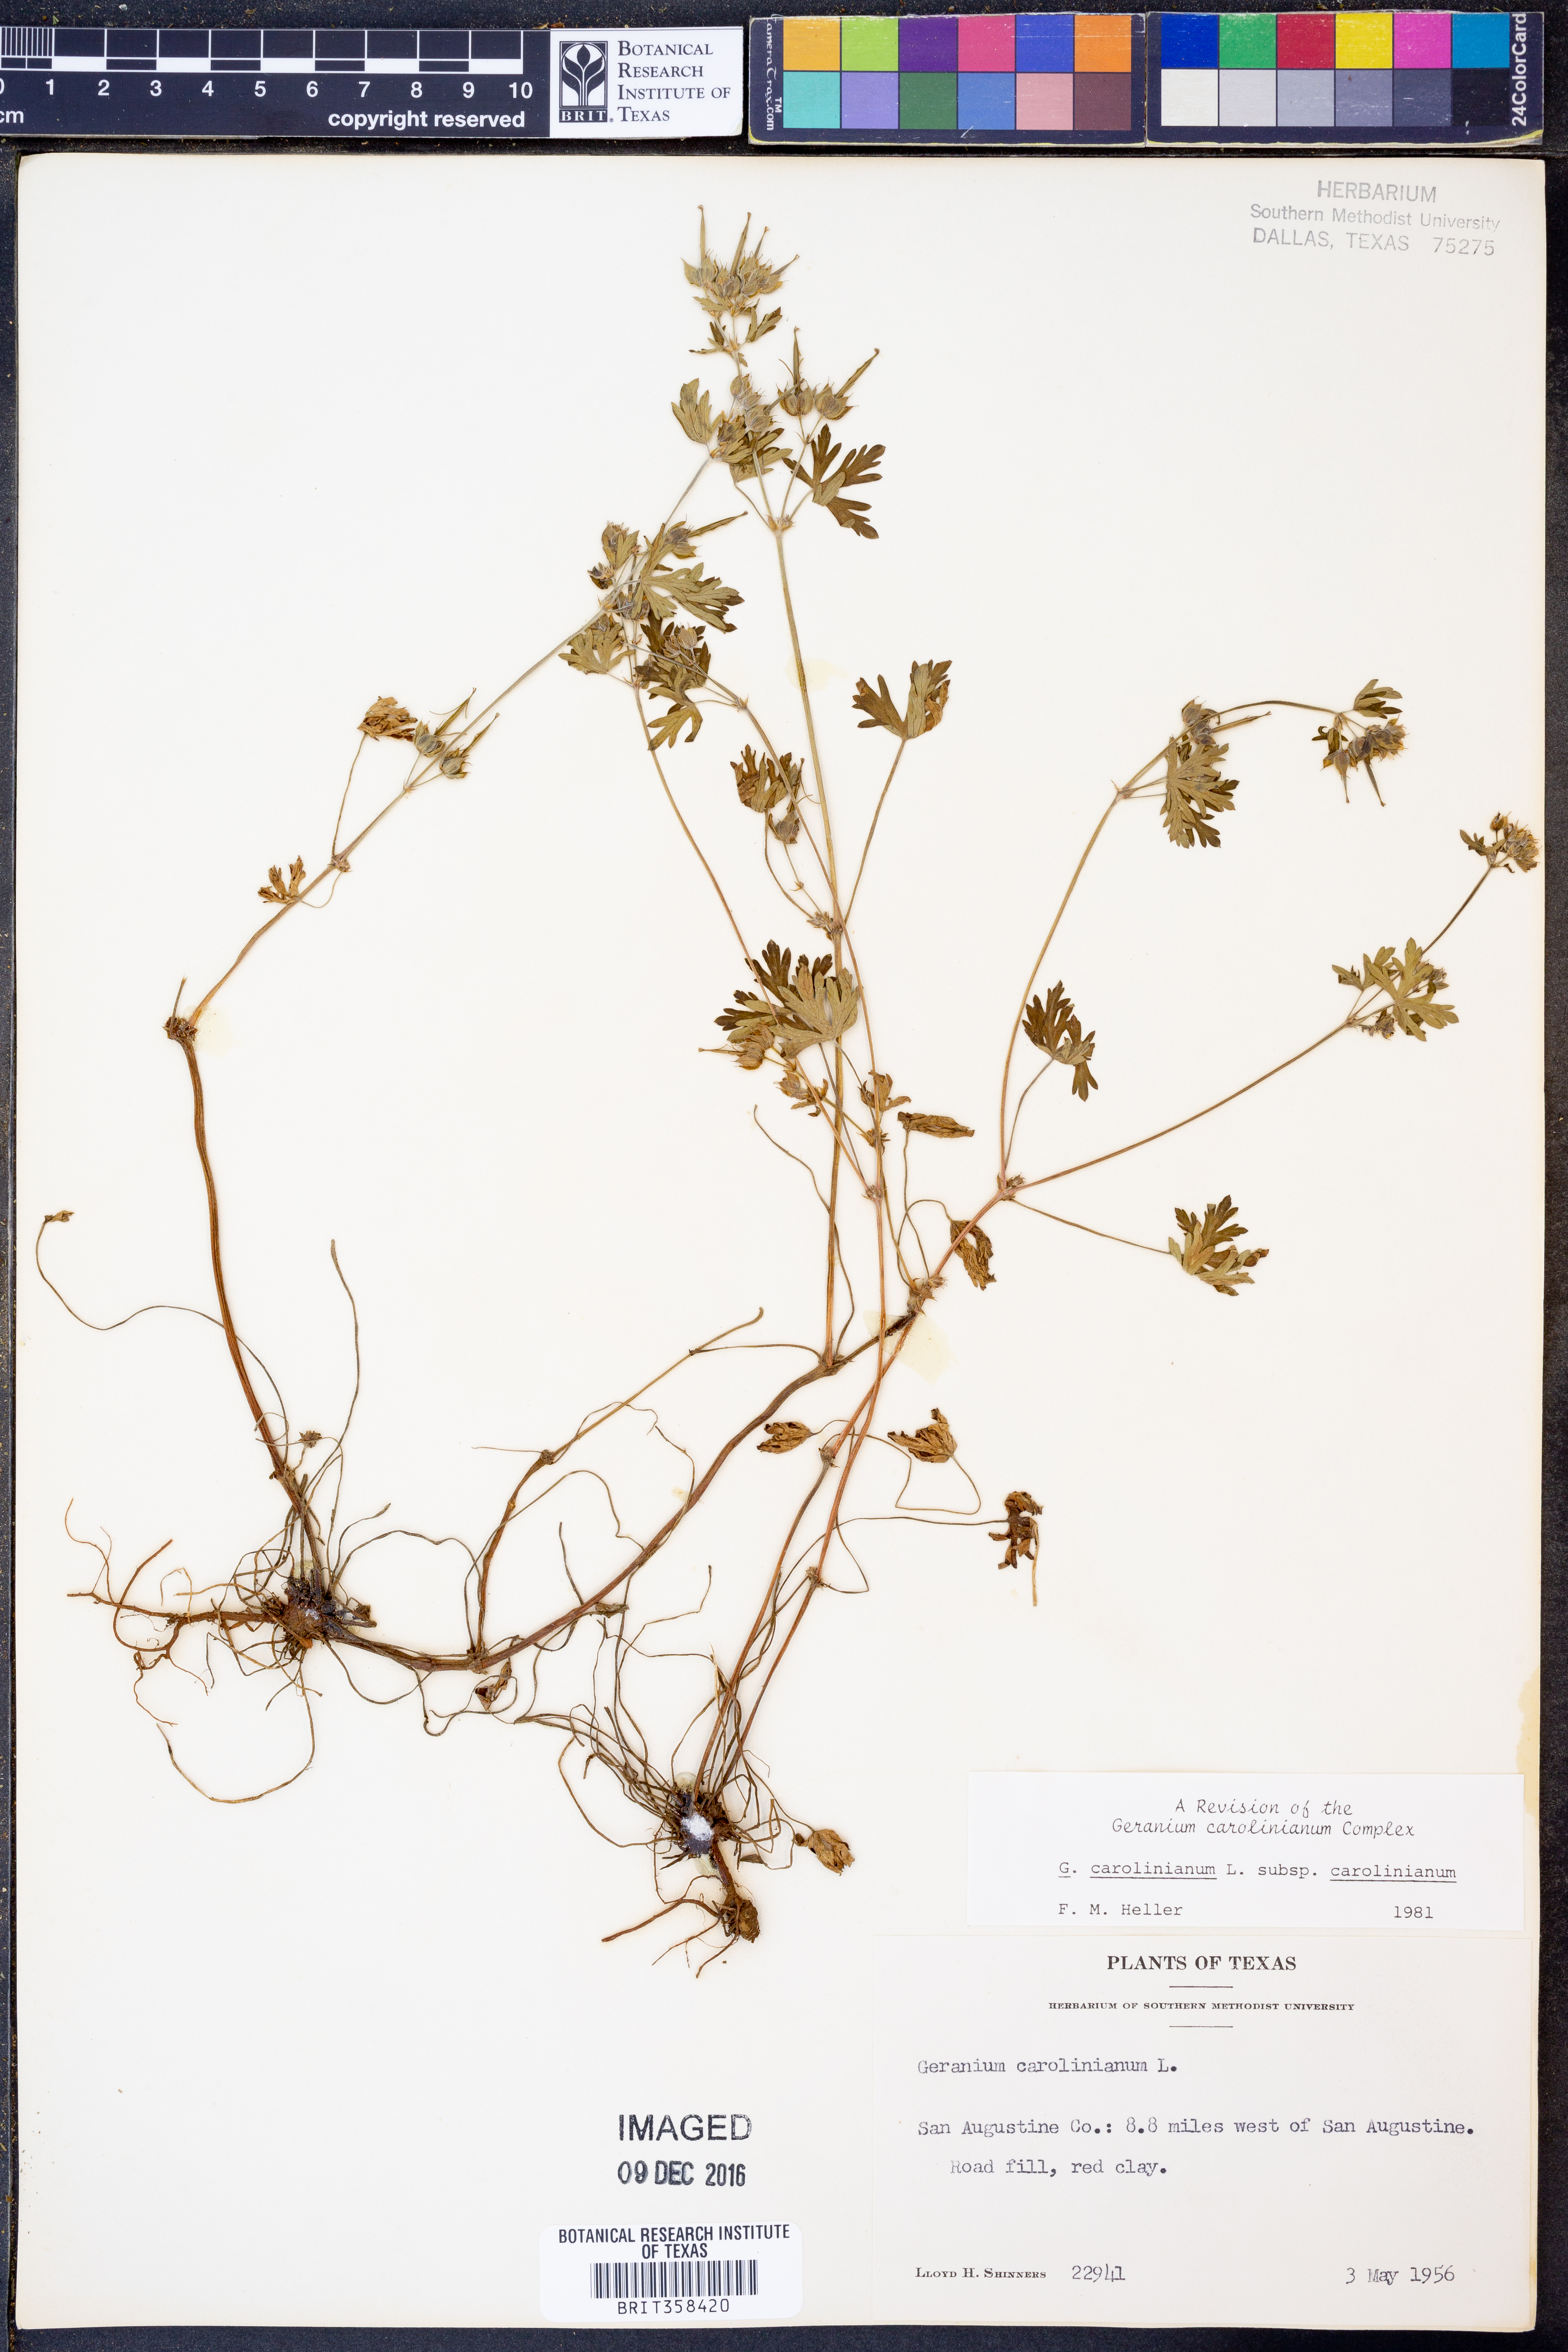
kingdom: Plantae
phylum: Tracheophyta
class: Magnoliopsida
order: Geraniales
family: Geraniaceae
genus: Geranium
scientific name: Geranium carolinianum
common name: Carolina crane's-bill
